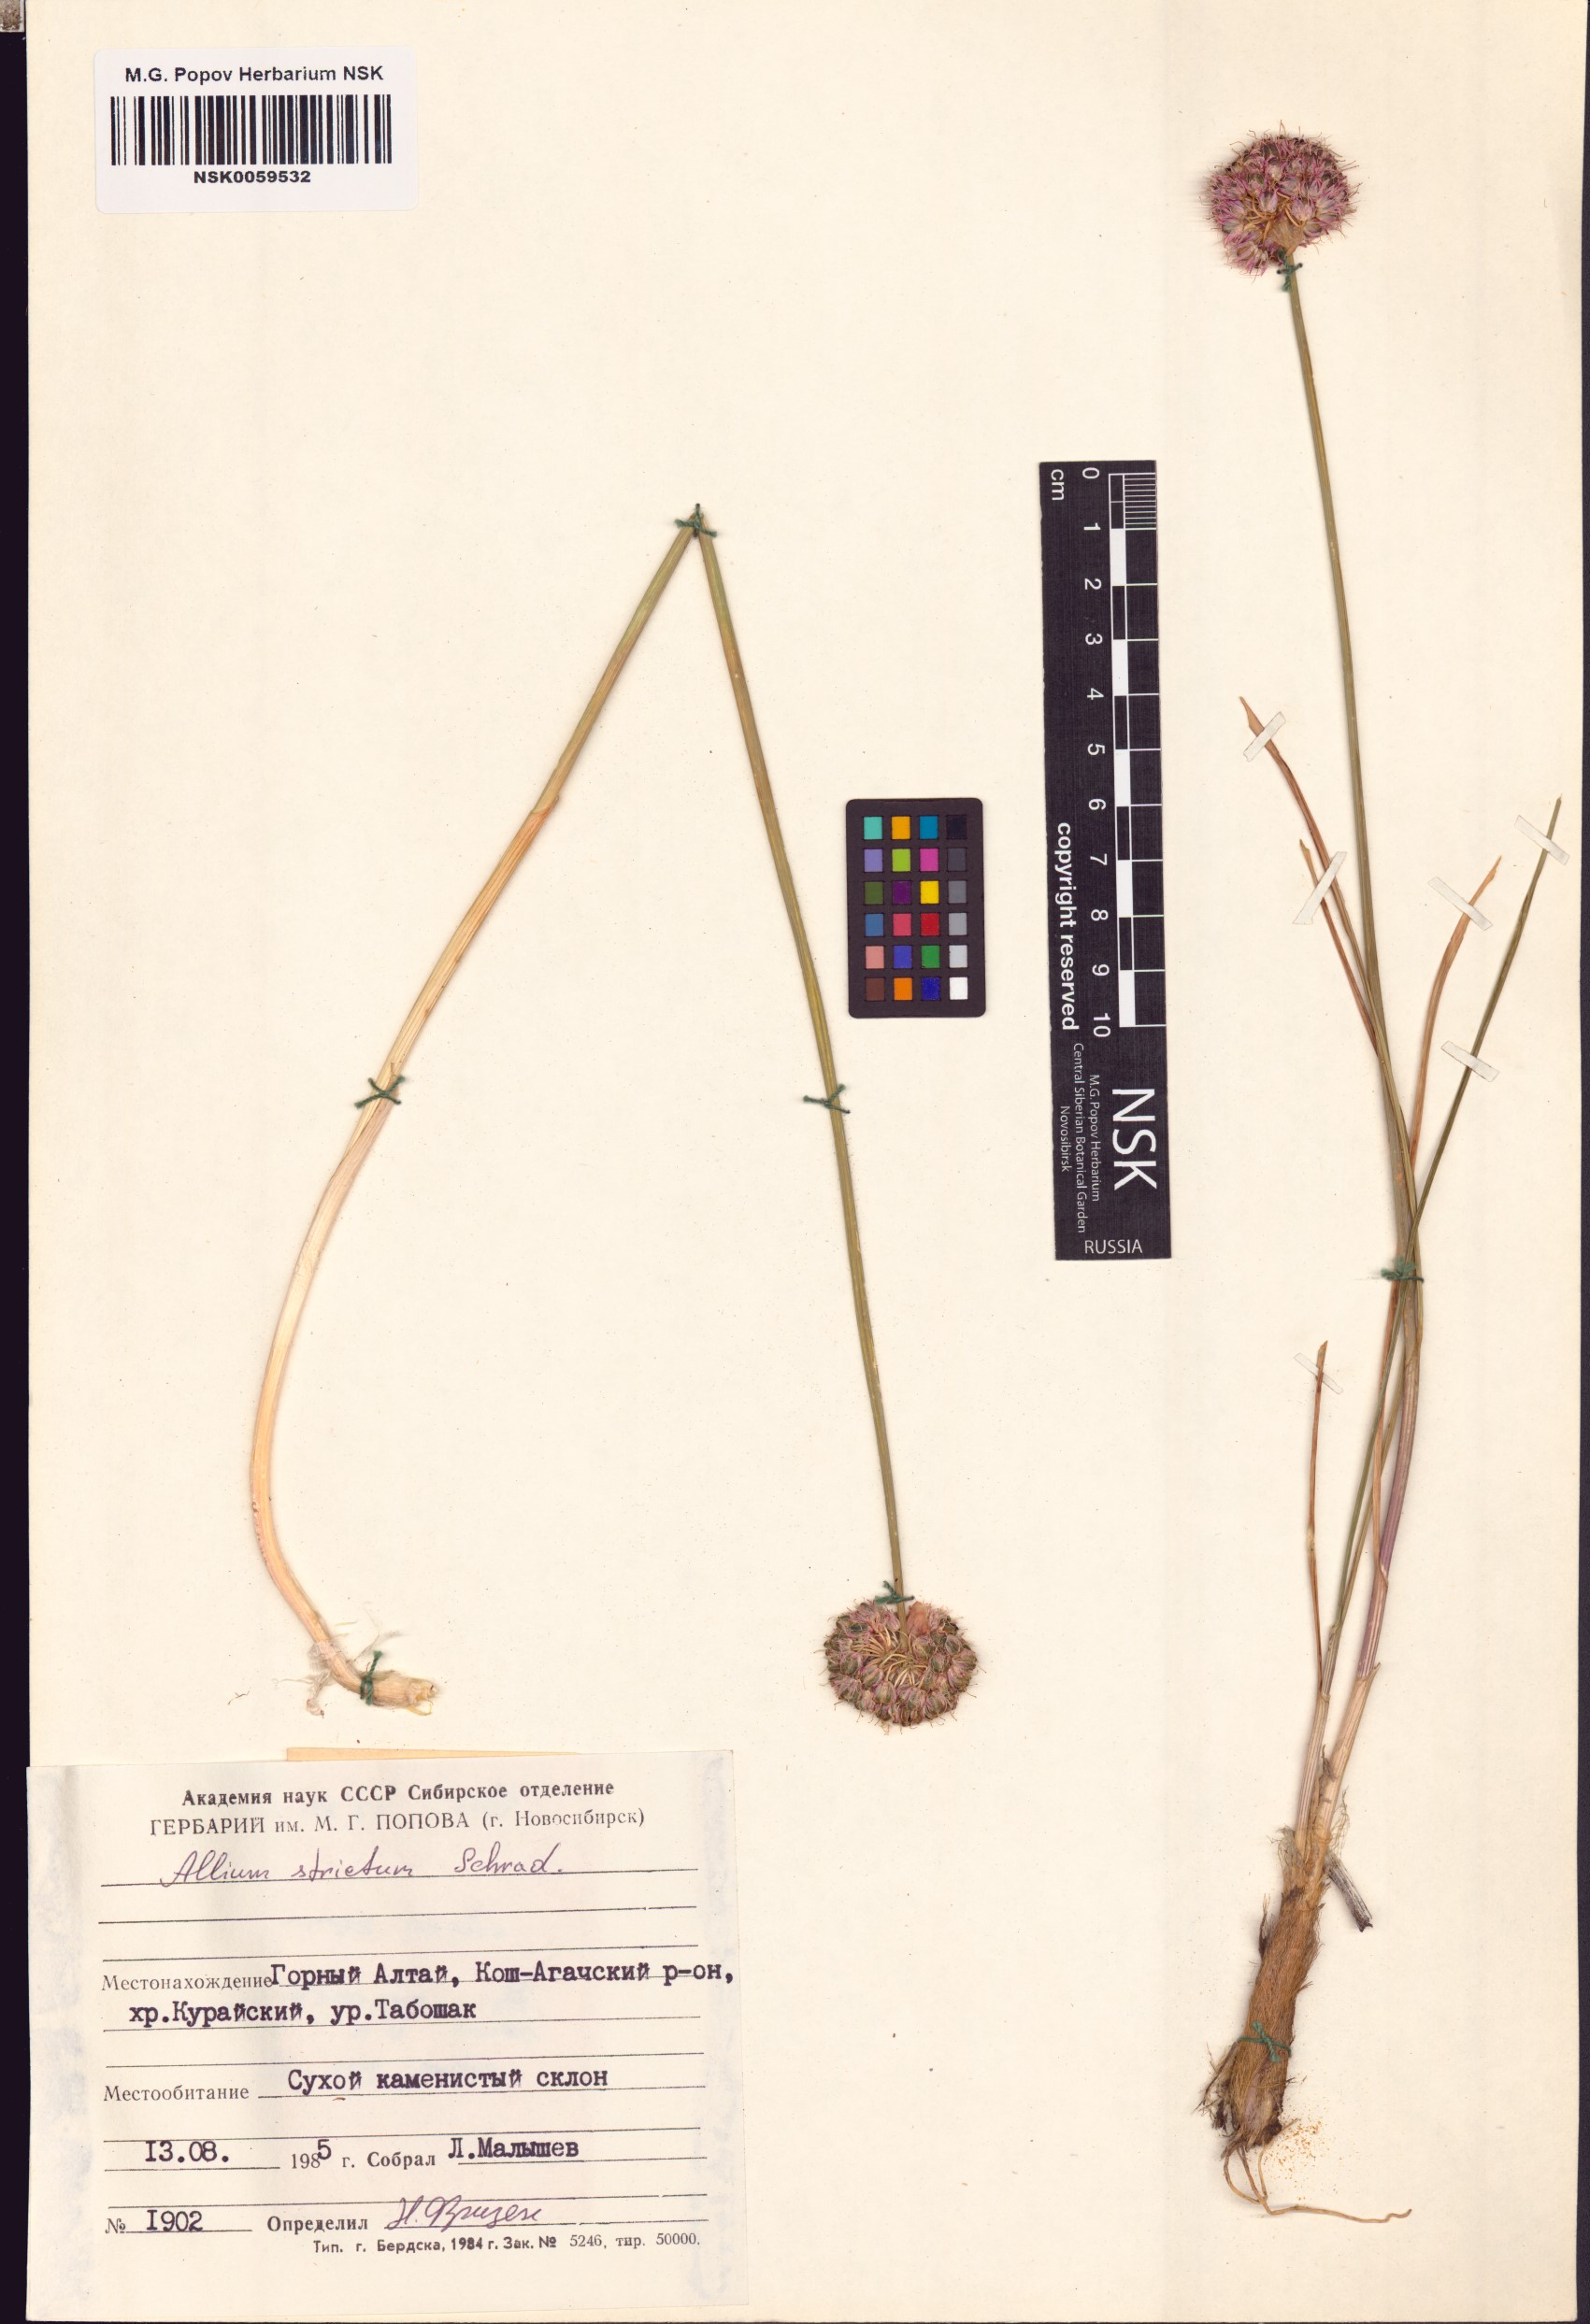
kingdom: Plantae
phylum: Tracheophyta
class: Liliopsida
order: Asparagales
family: Amaryllidaceae
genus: Allium
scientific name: Allium strictum
